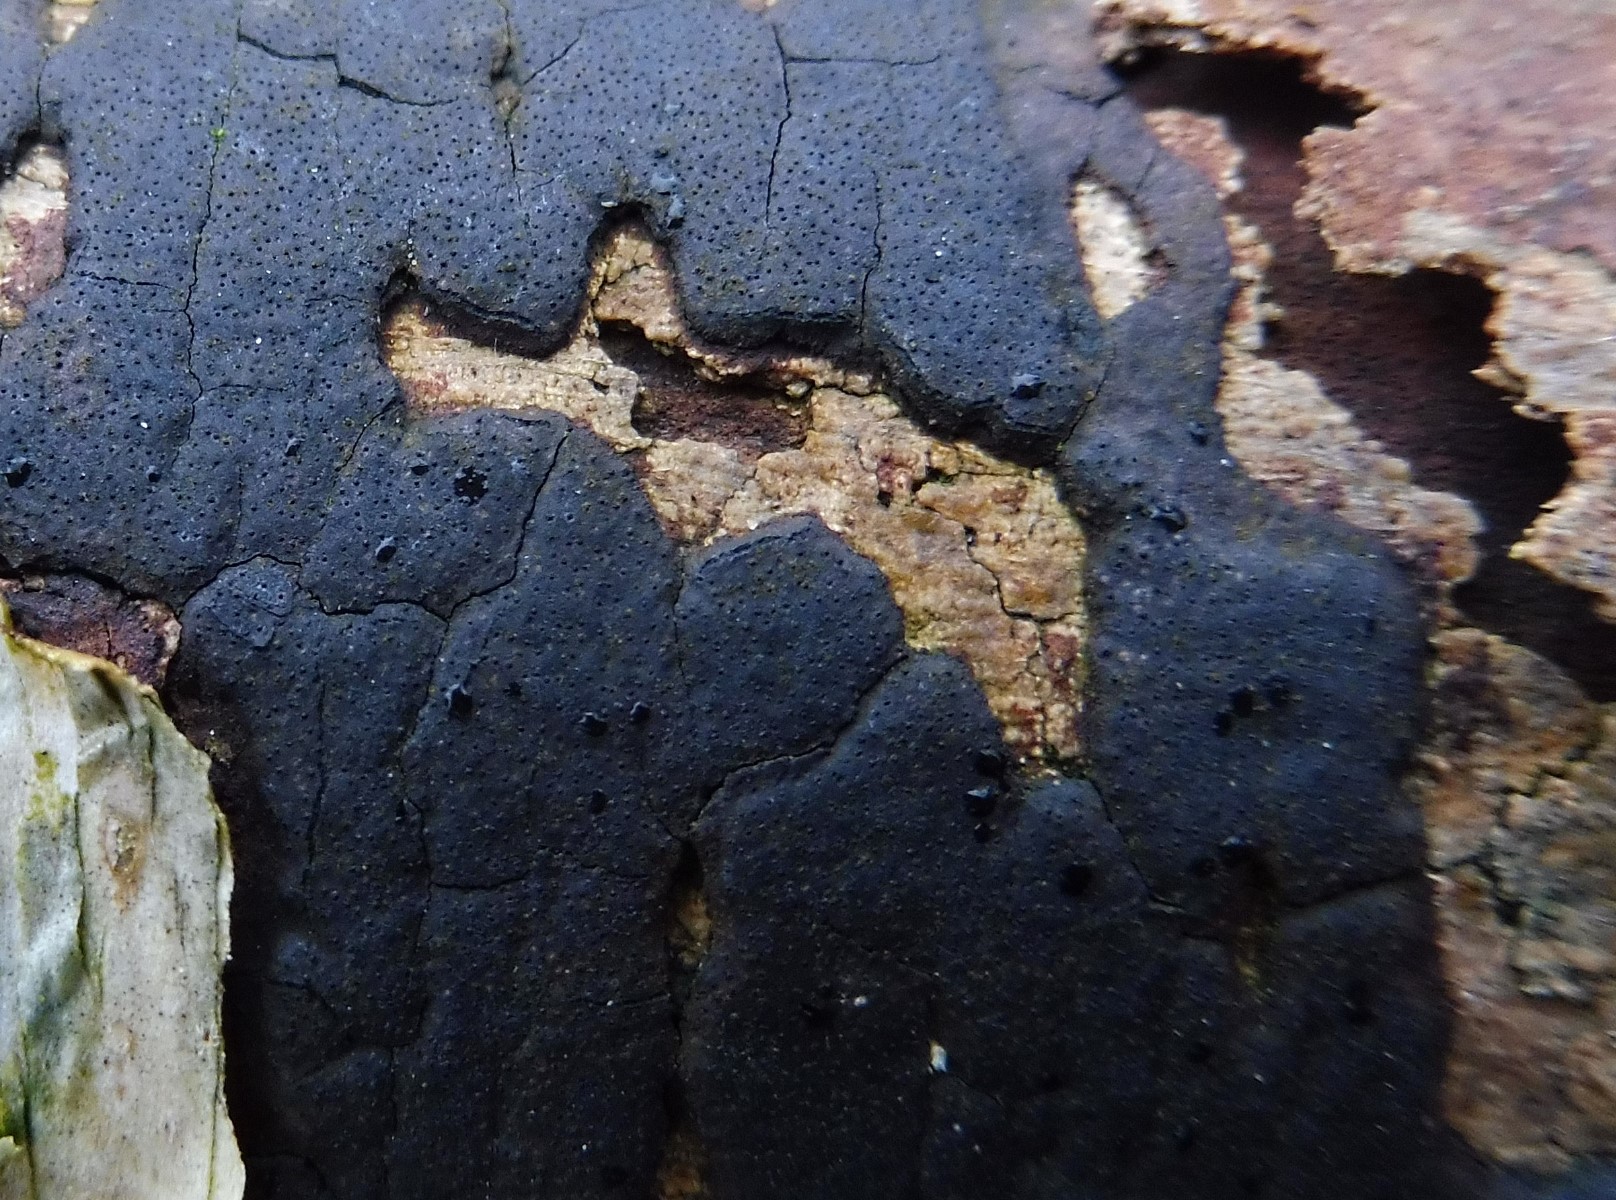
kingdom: Fungi
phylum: Ascomycota
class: Sordariomycetes
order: Xylariales
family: Diatrypaceae
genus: Diatrype
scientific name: Diatrype
